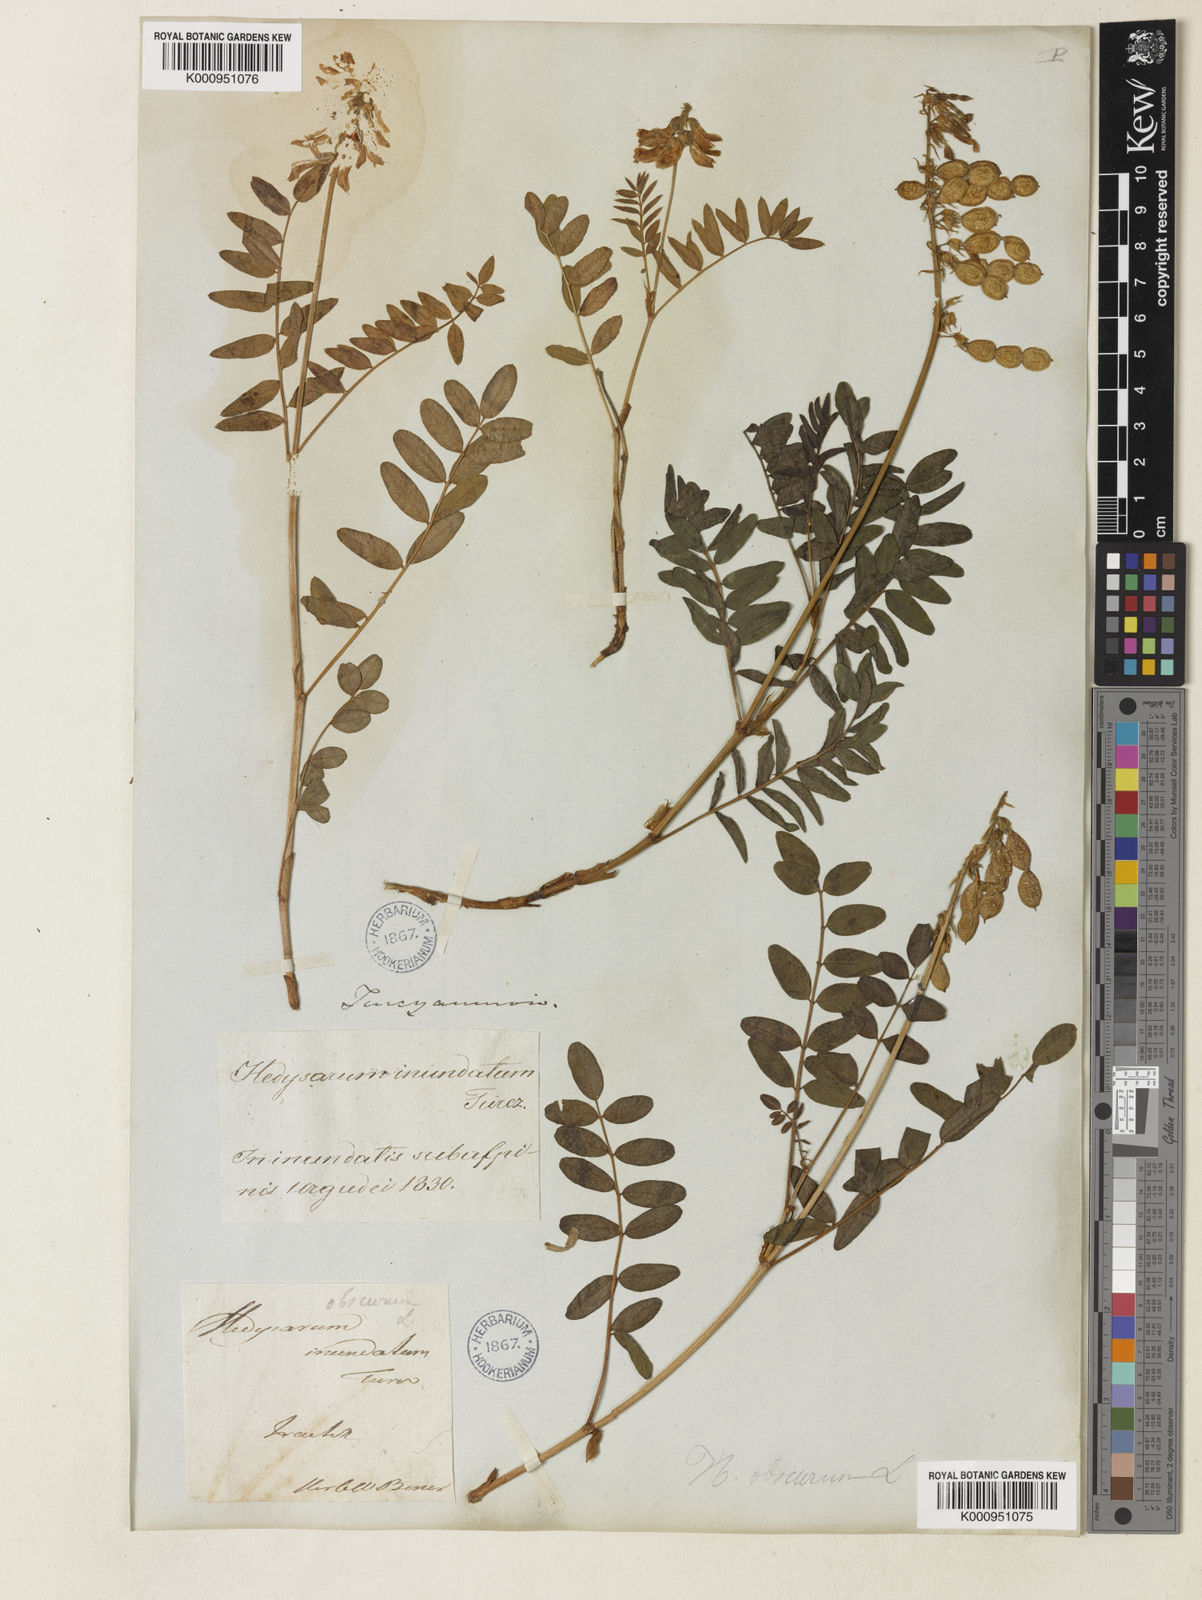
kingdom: Plantae
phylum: Tracheophyta
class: Magnoliopsida
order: Fabales
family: Fabaceae
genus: Hedysarum
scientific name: Hedysarum inundatum
